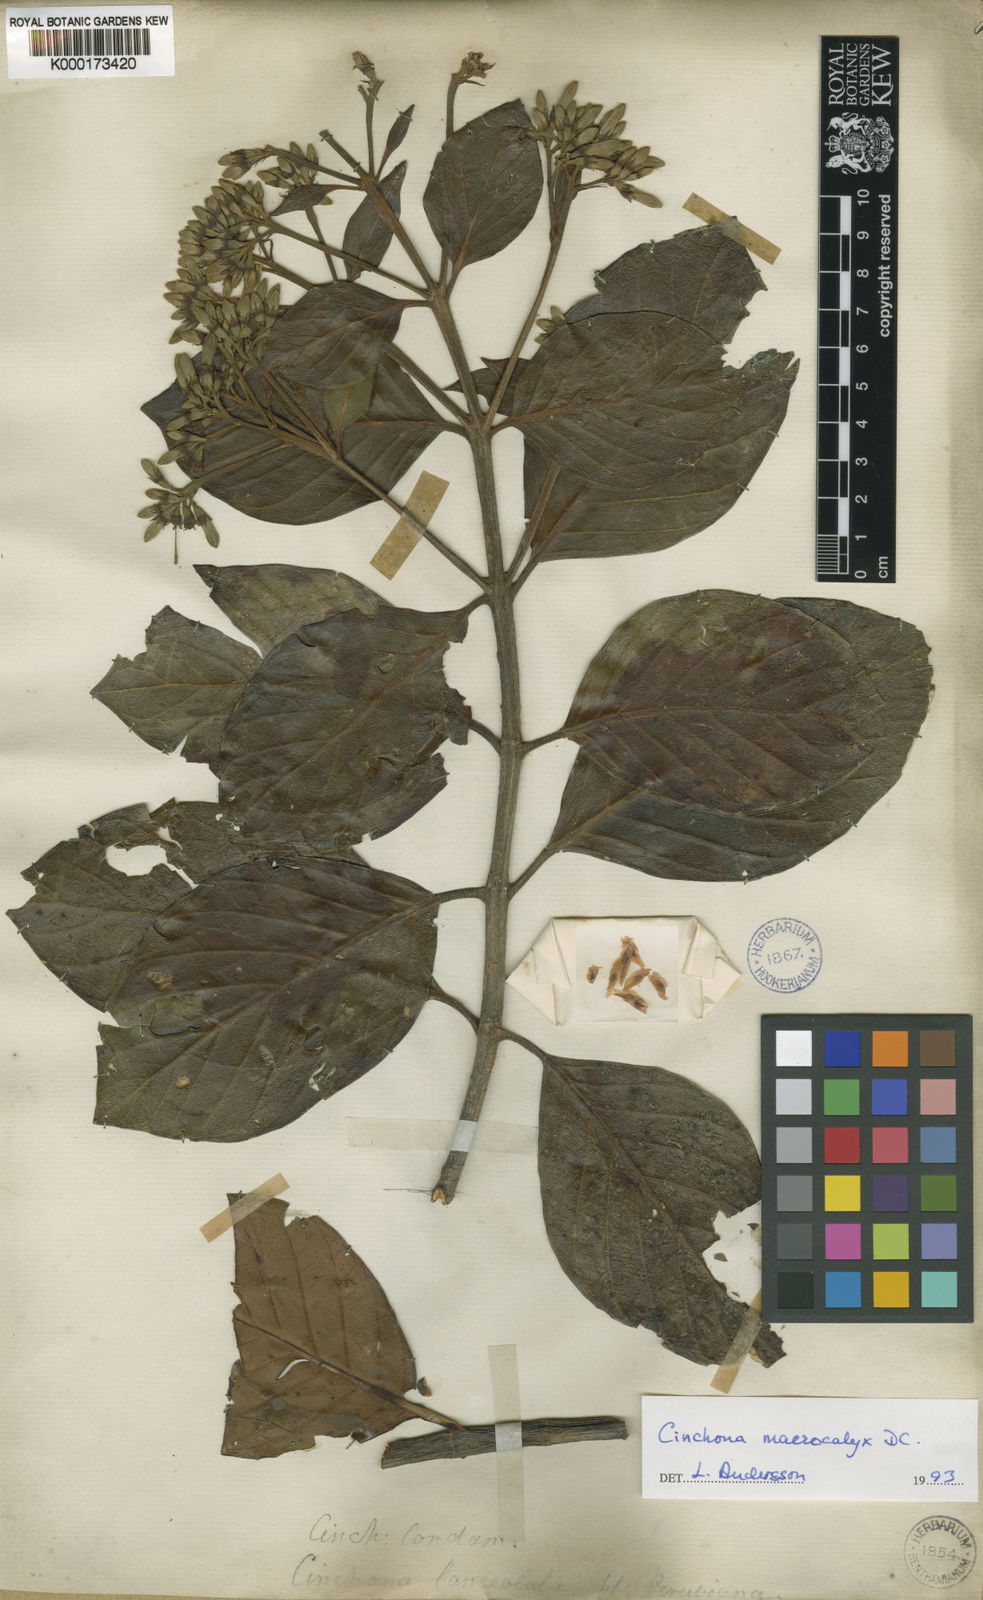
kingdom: Plantae
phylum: Tracheophyta
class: Magnoliopsida
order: Gentianales
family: Rubiaceae
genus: Cinchona
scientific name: Cinchona macrocalyx
